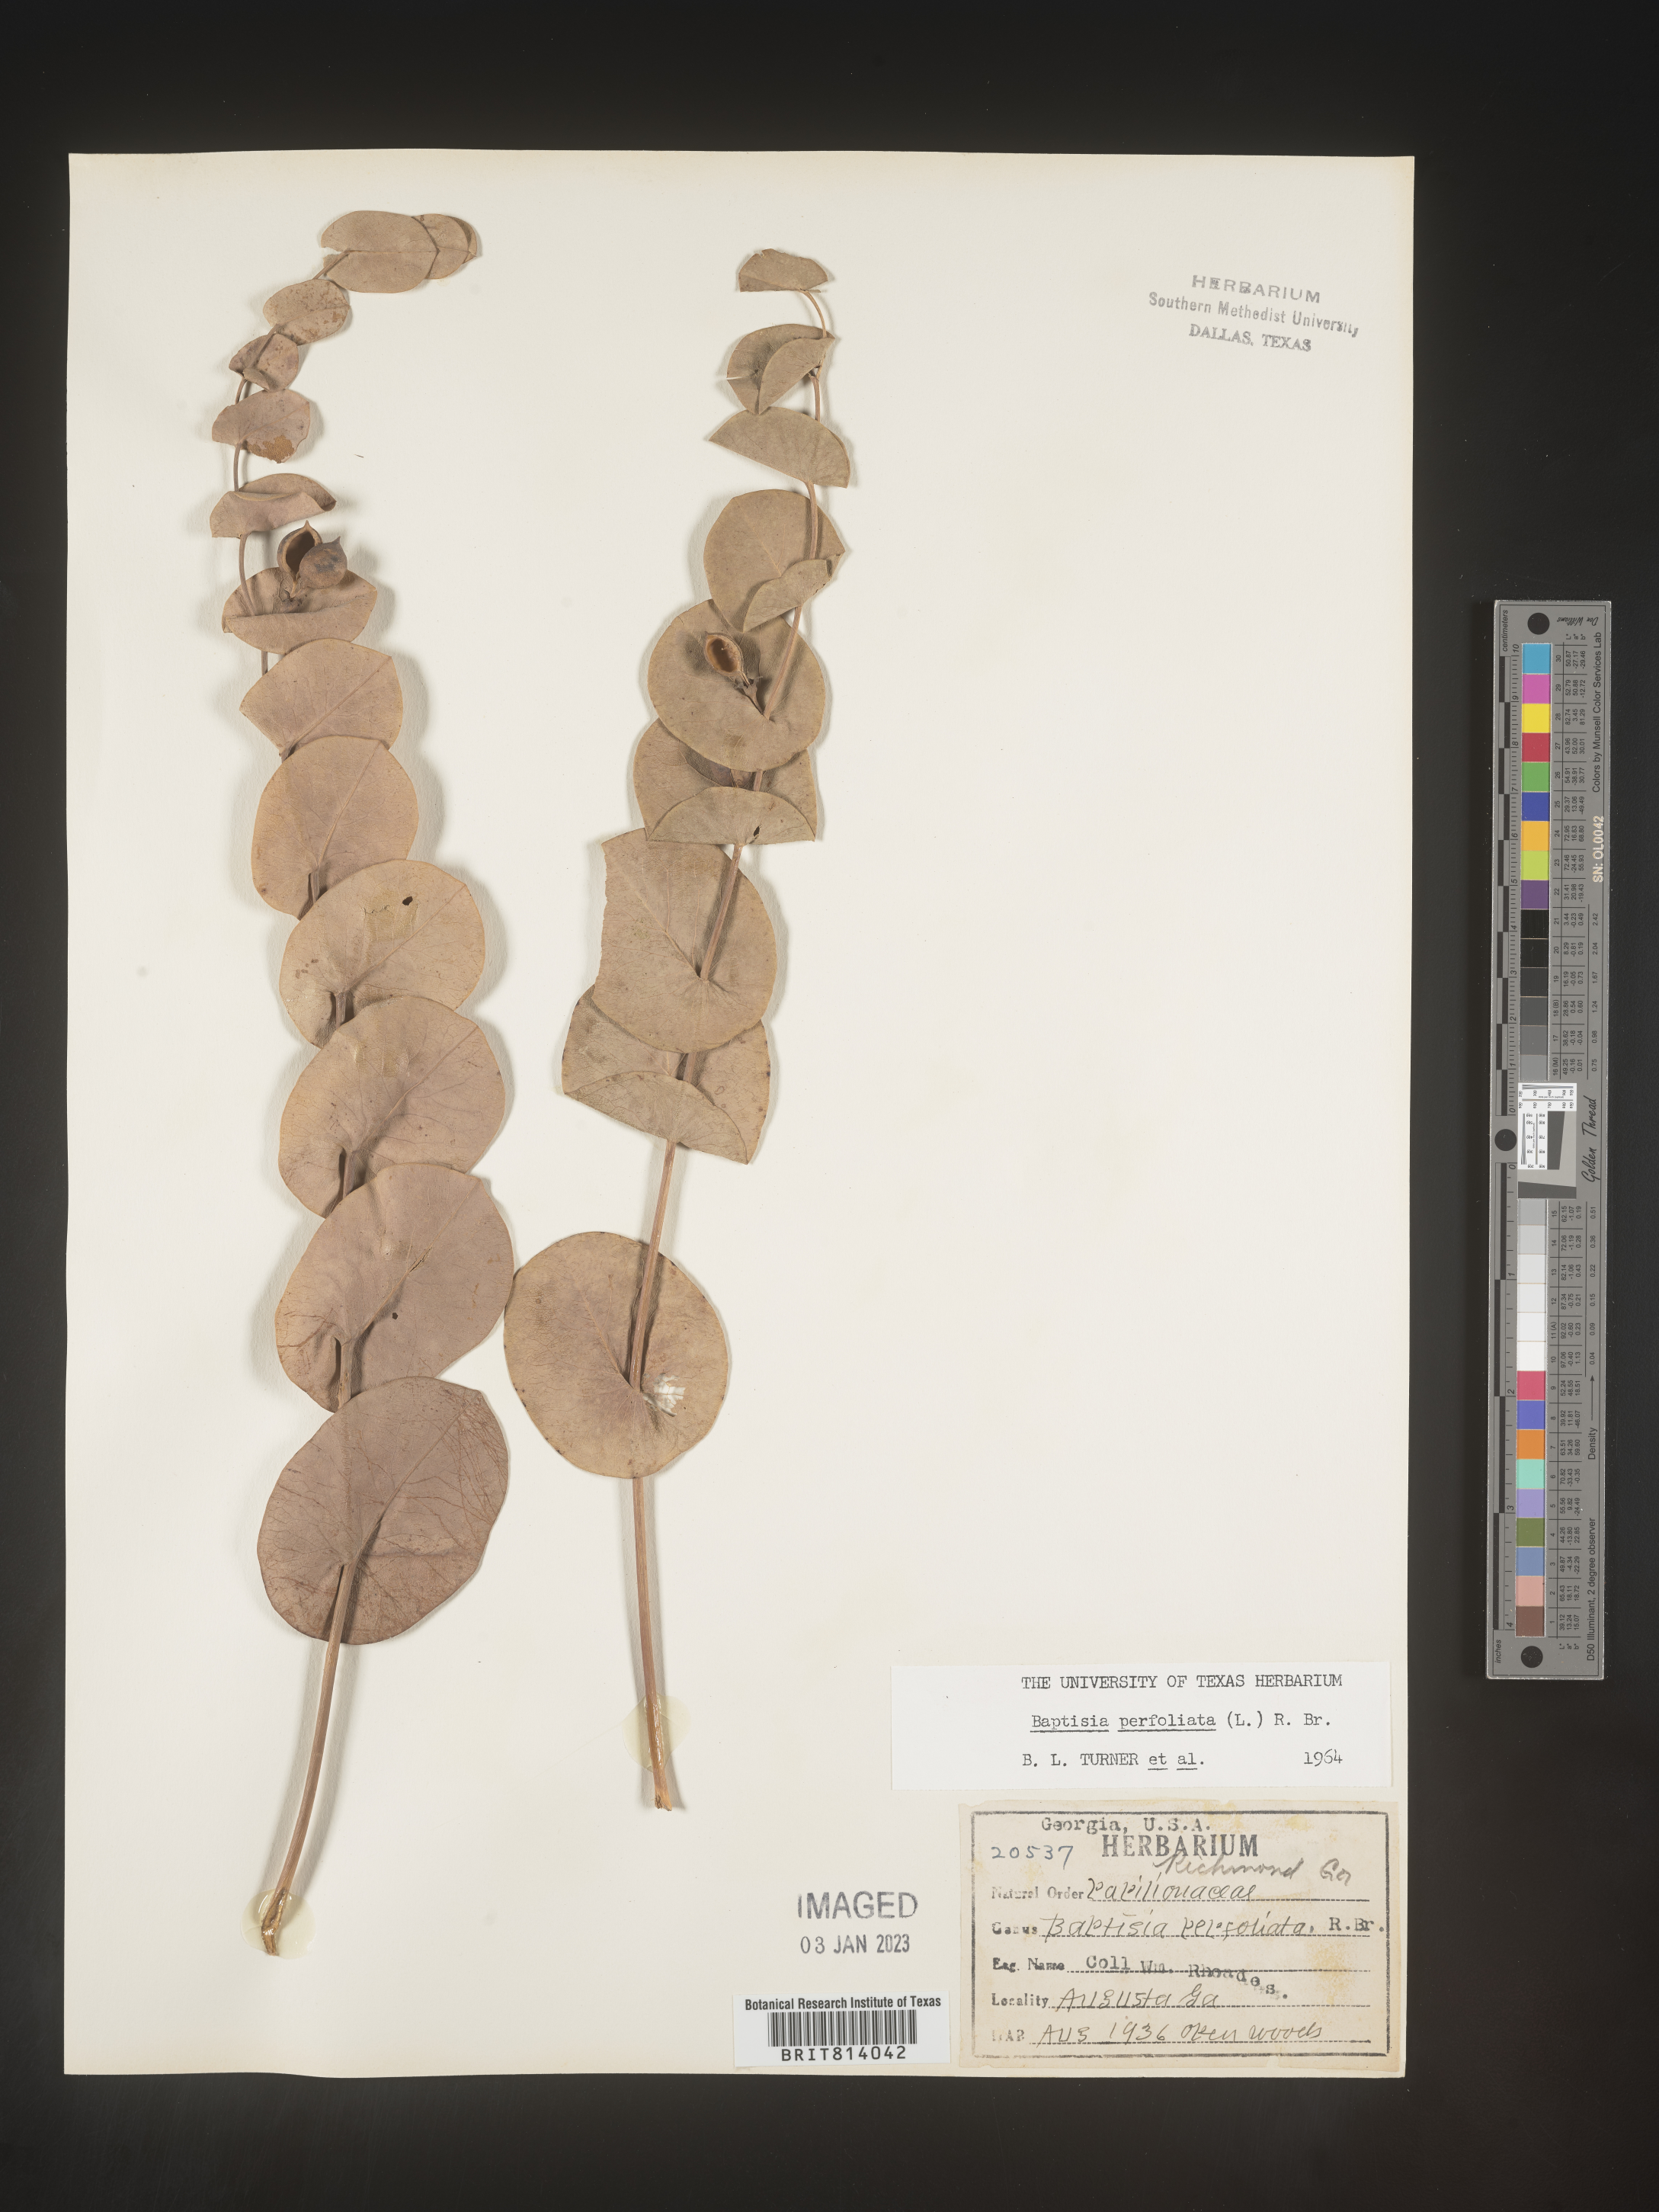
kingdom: Plantae
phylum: Tracheophyta
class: Magnoliopsida
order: Fabales
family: Fabaceae
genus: Baptisia
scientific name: Baptisia perfoliata
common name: Catbells
